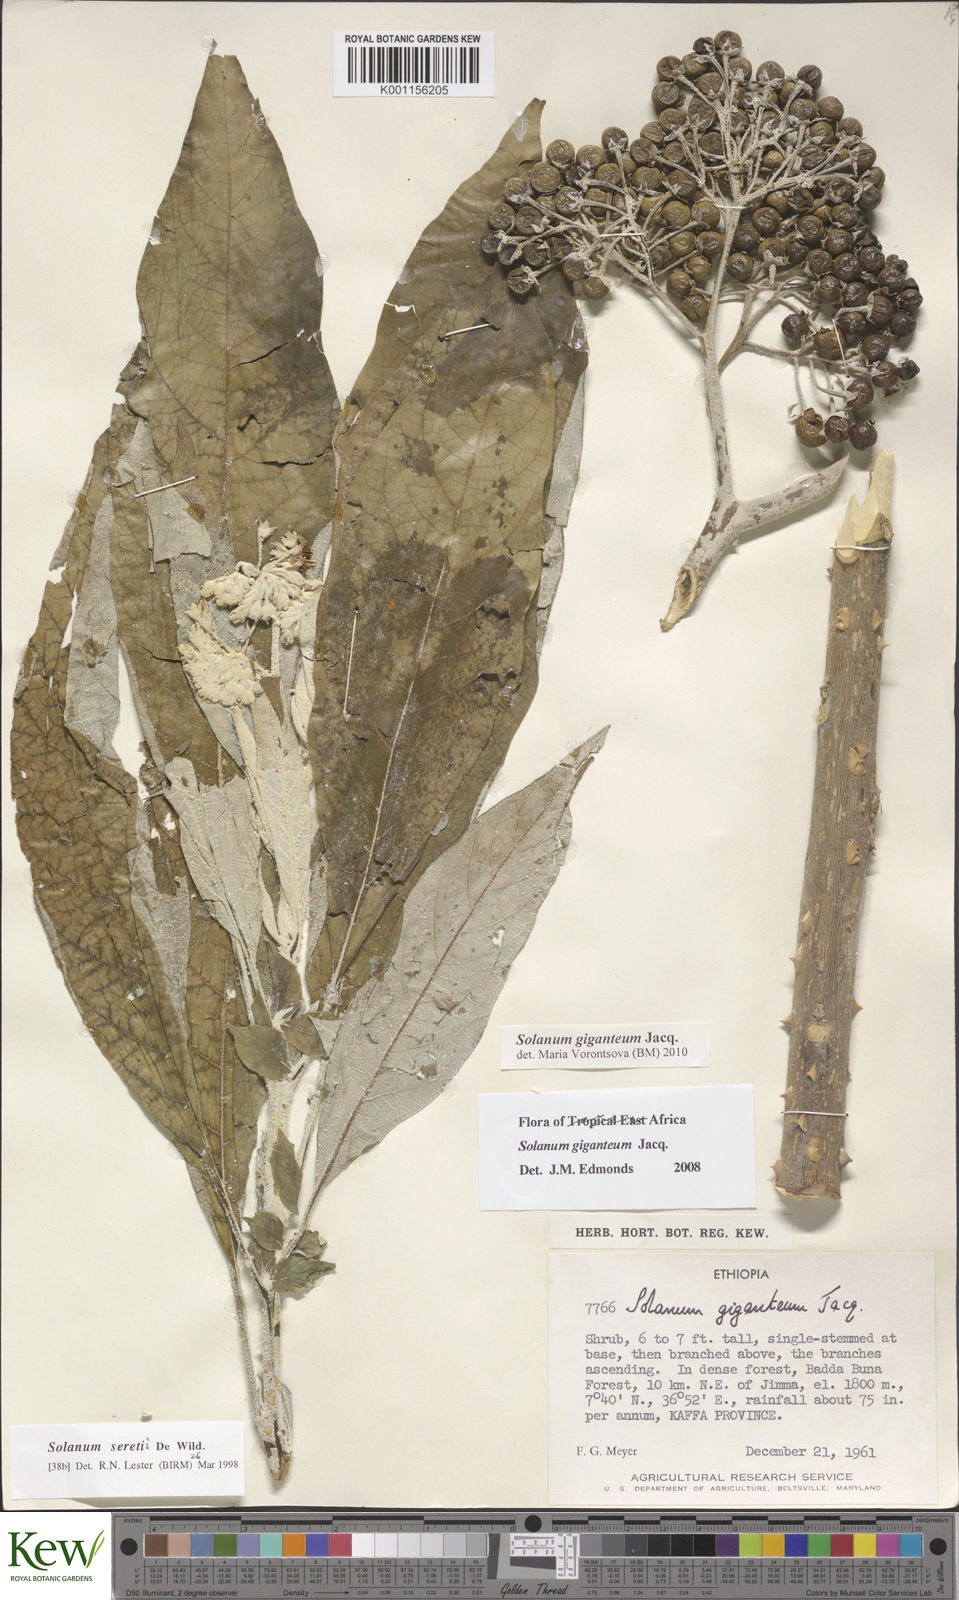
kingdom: Plantae
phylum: Tracheophyta
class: Magnoliopsida
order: Solanales
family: Solanaceae
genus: Solanum
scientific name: Solanum giganteum
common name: Healing-leaf-tree
